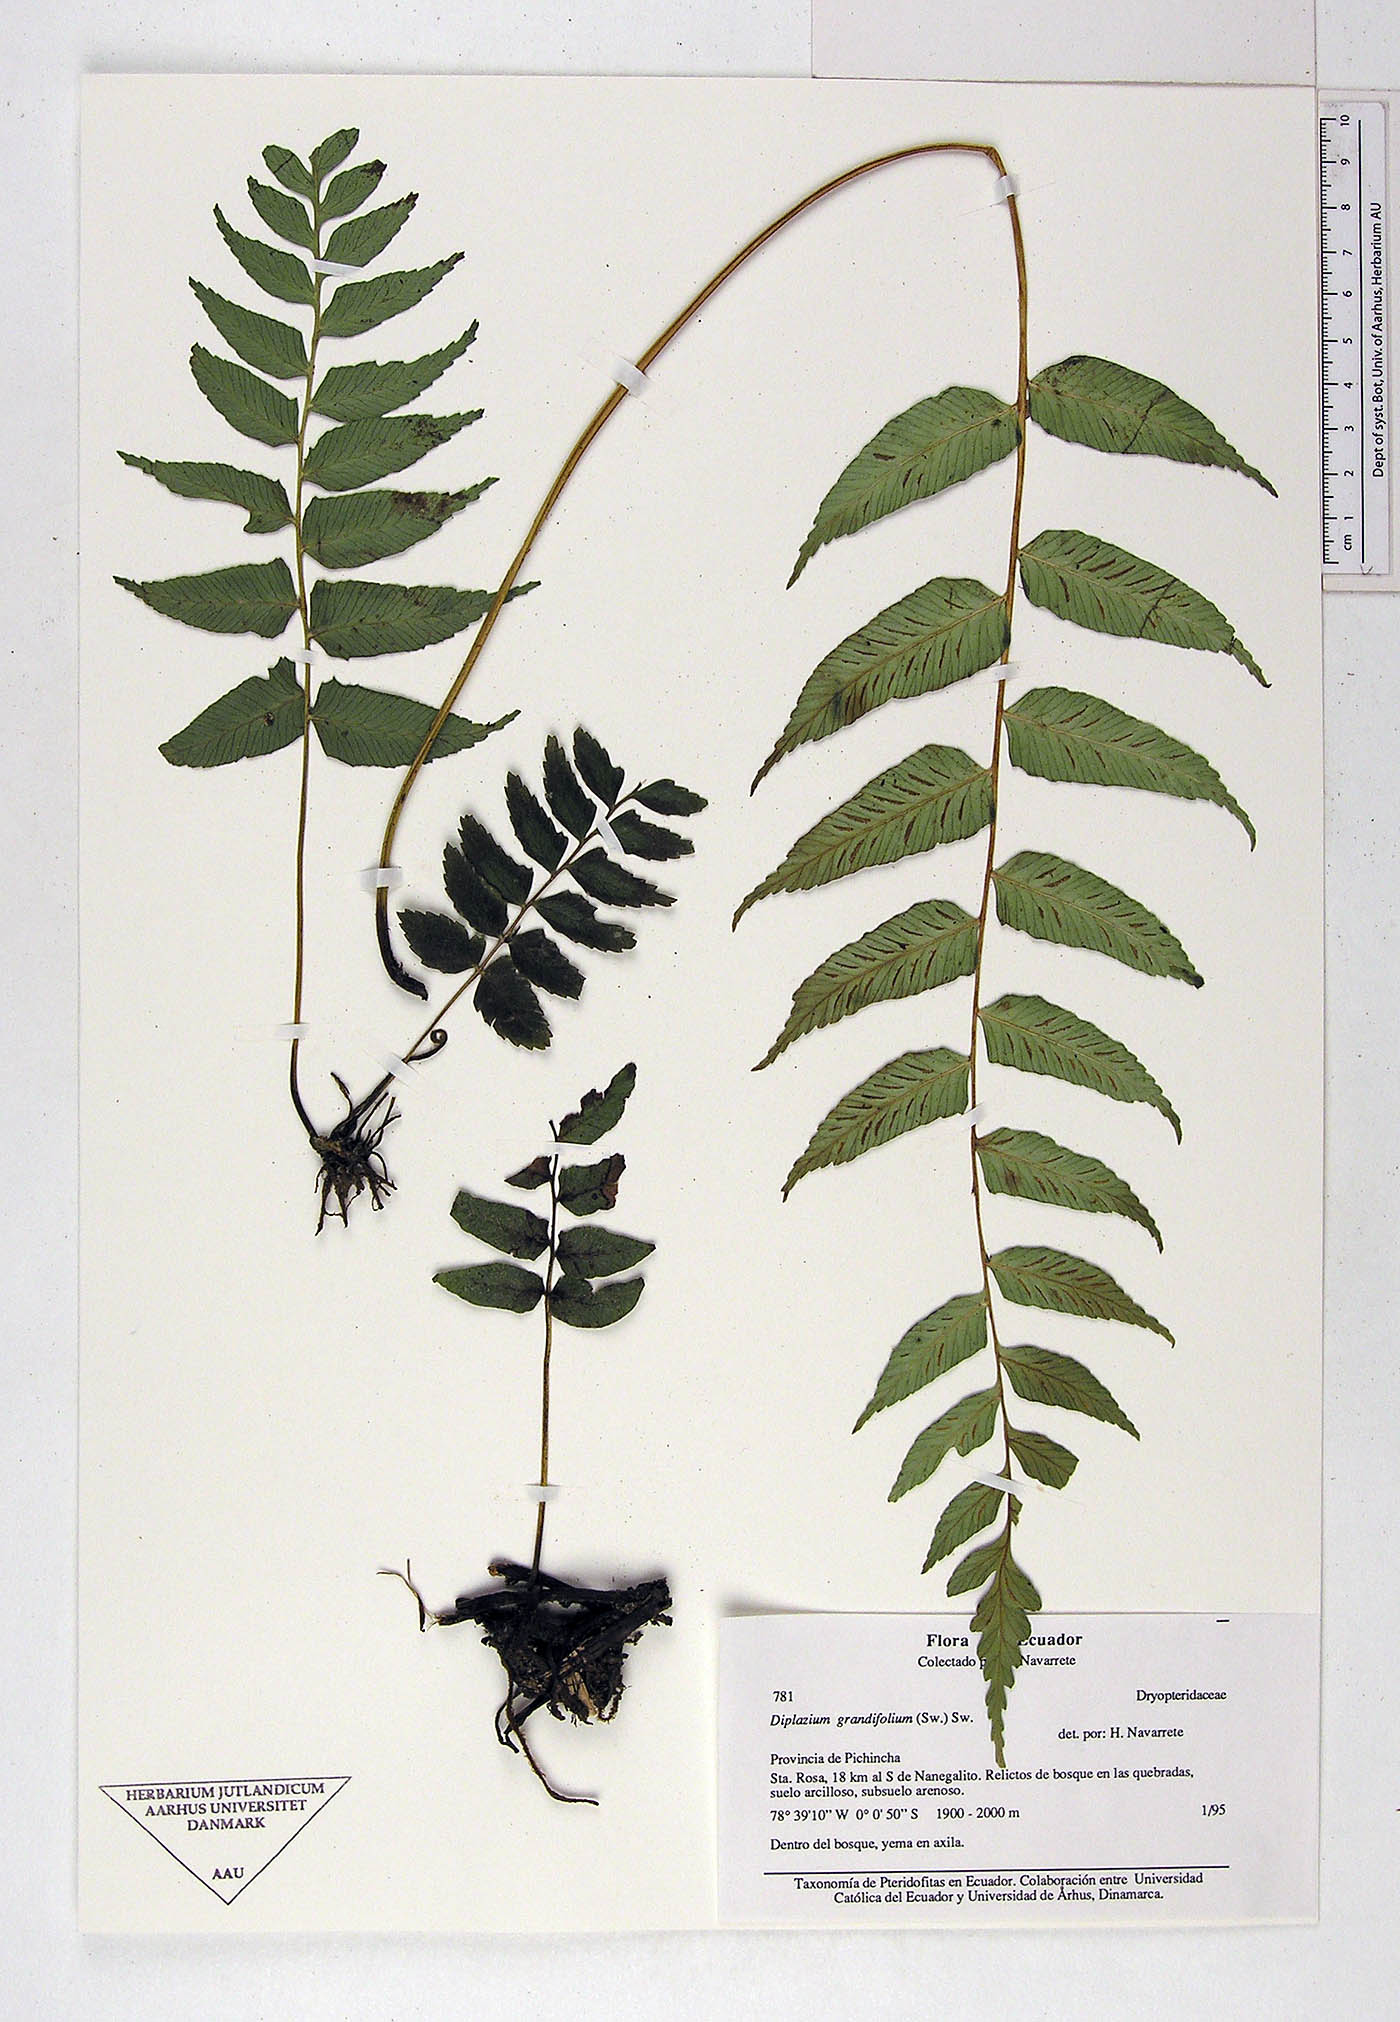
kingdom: Plantae
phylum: Tracheophyta
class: Polypodiopsida
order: Polypodiales
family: Athyriaceae
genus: Diplazium
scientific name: Diplazium
